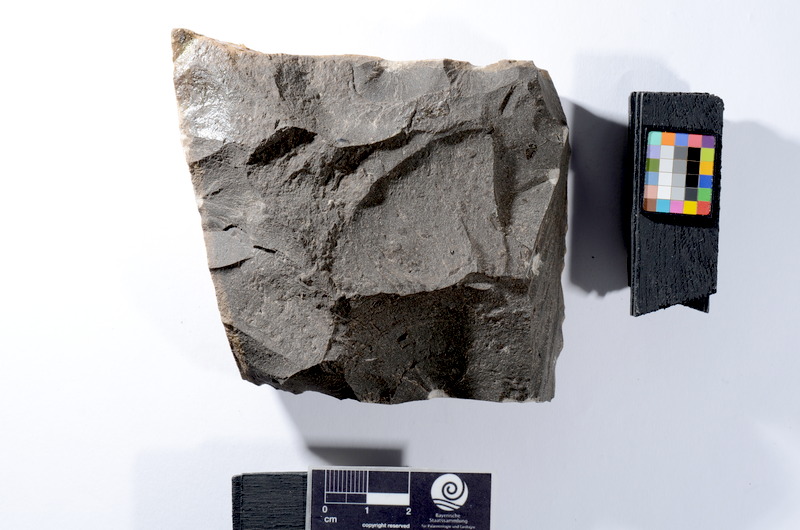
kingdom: Animalia
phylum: Chordata
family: Leptolepididae
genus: Leptolepis
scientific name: Leptolepis coryphaenoides
